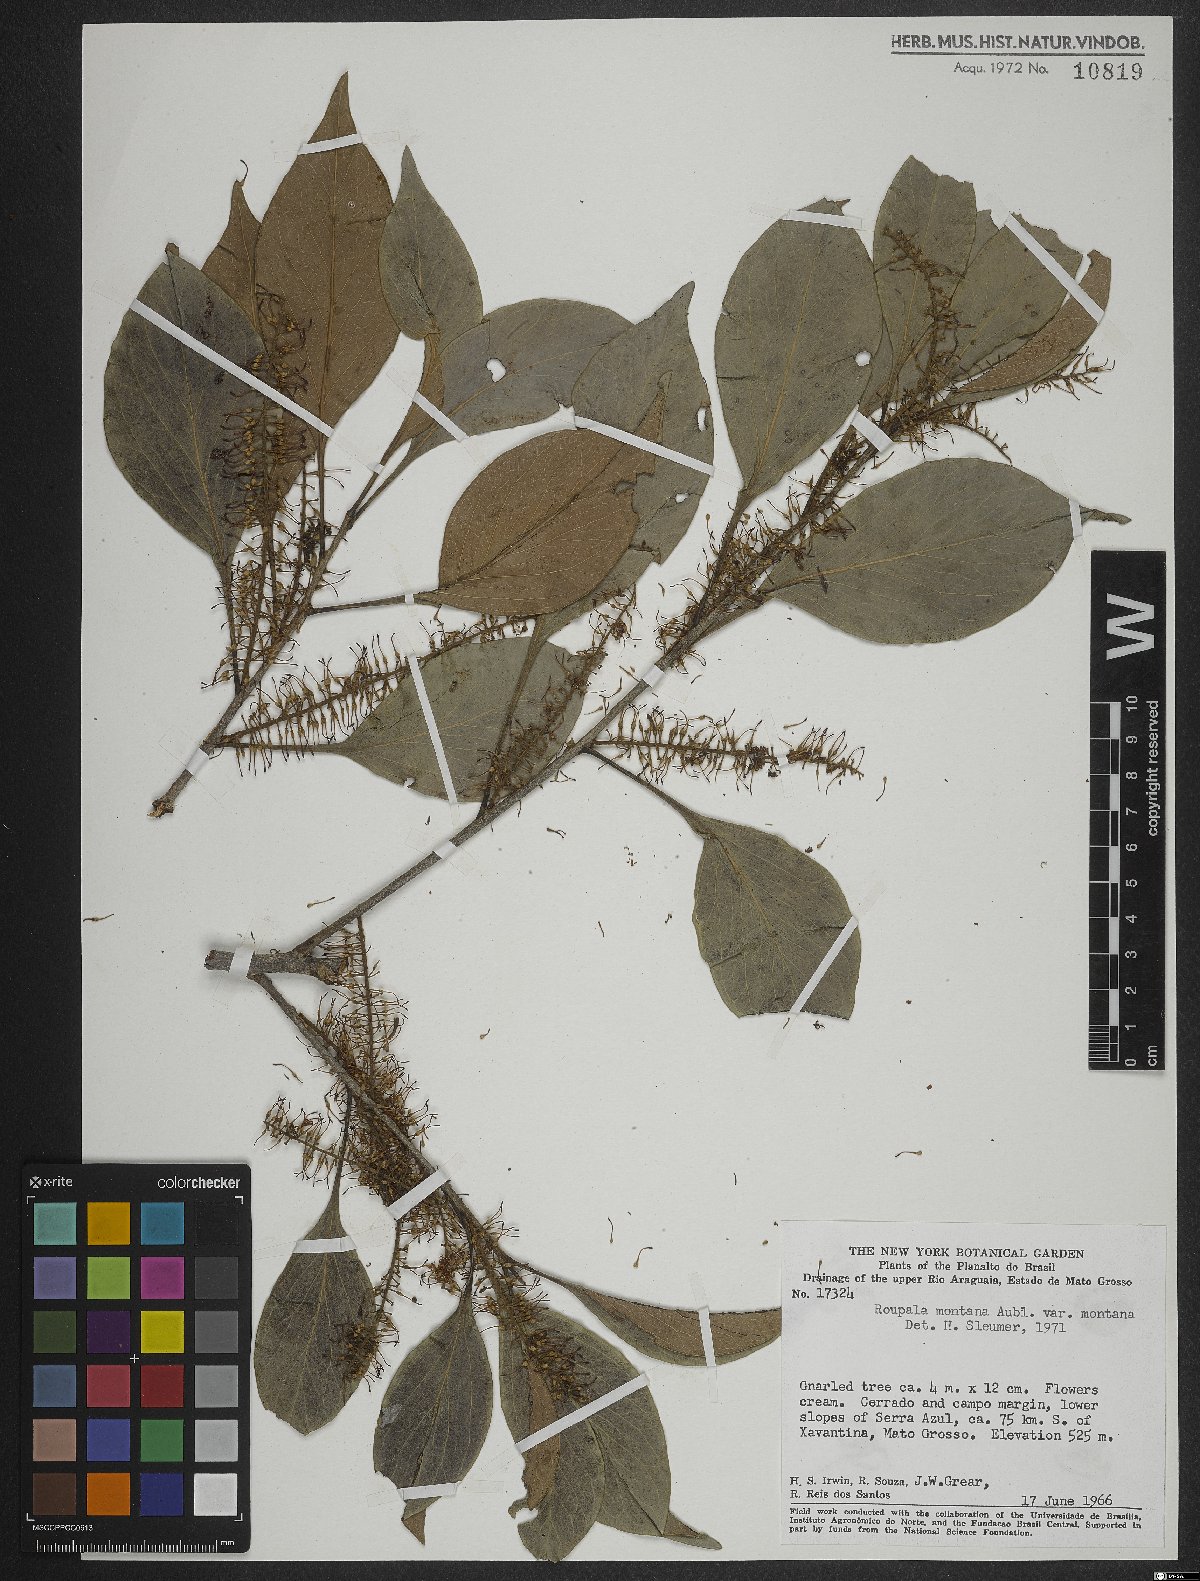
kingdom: Plantae
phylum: Tracheophyta
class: Magnoliopsida
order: Proteales
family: Proteaceae
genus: Roupala
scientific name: Roupala montana
